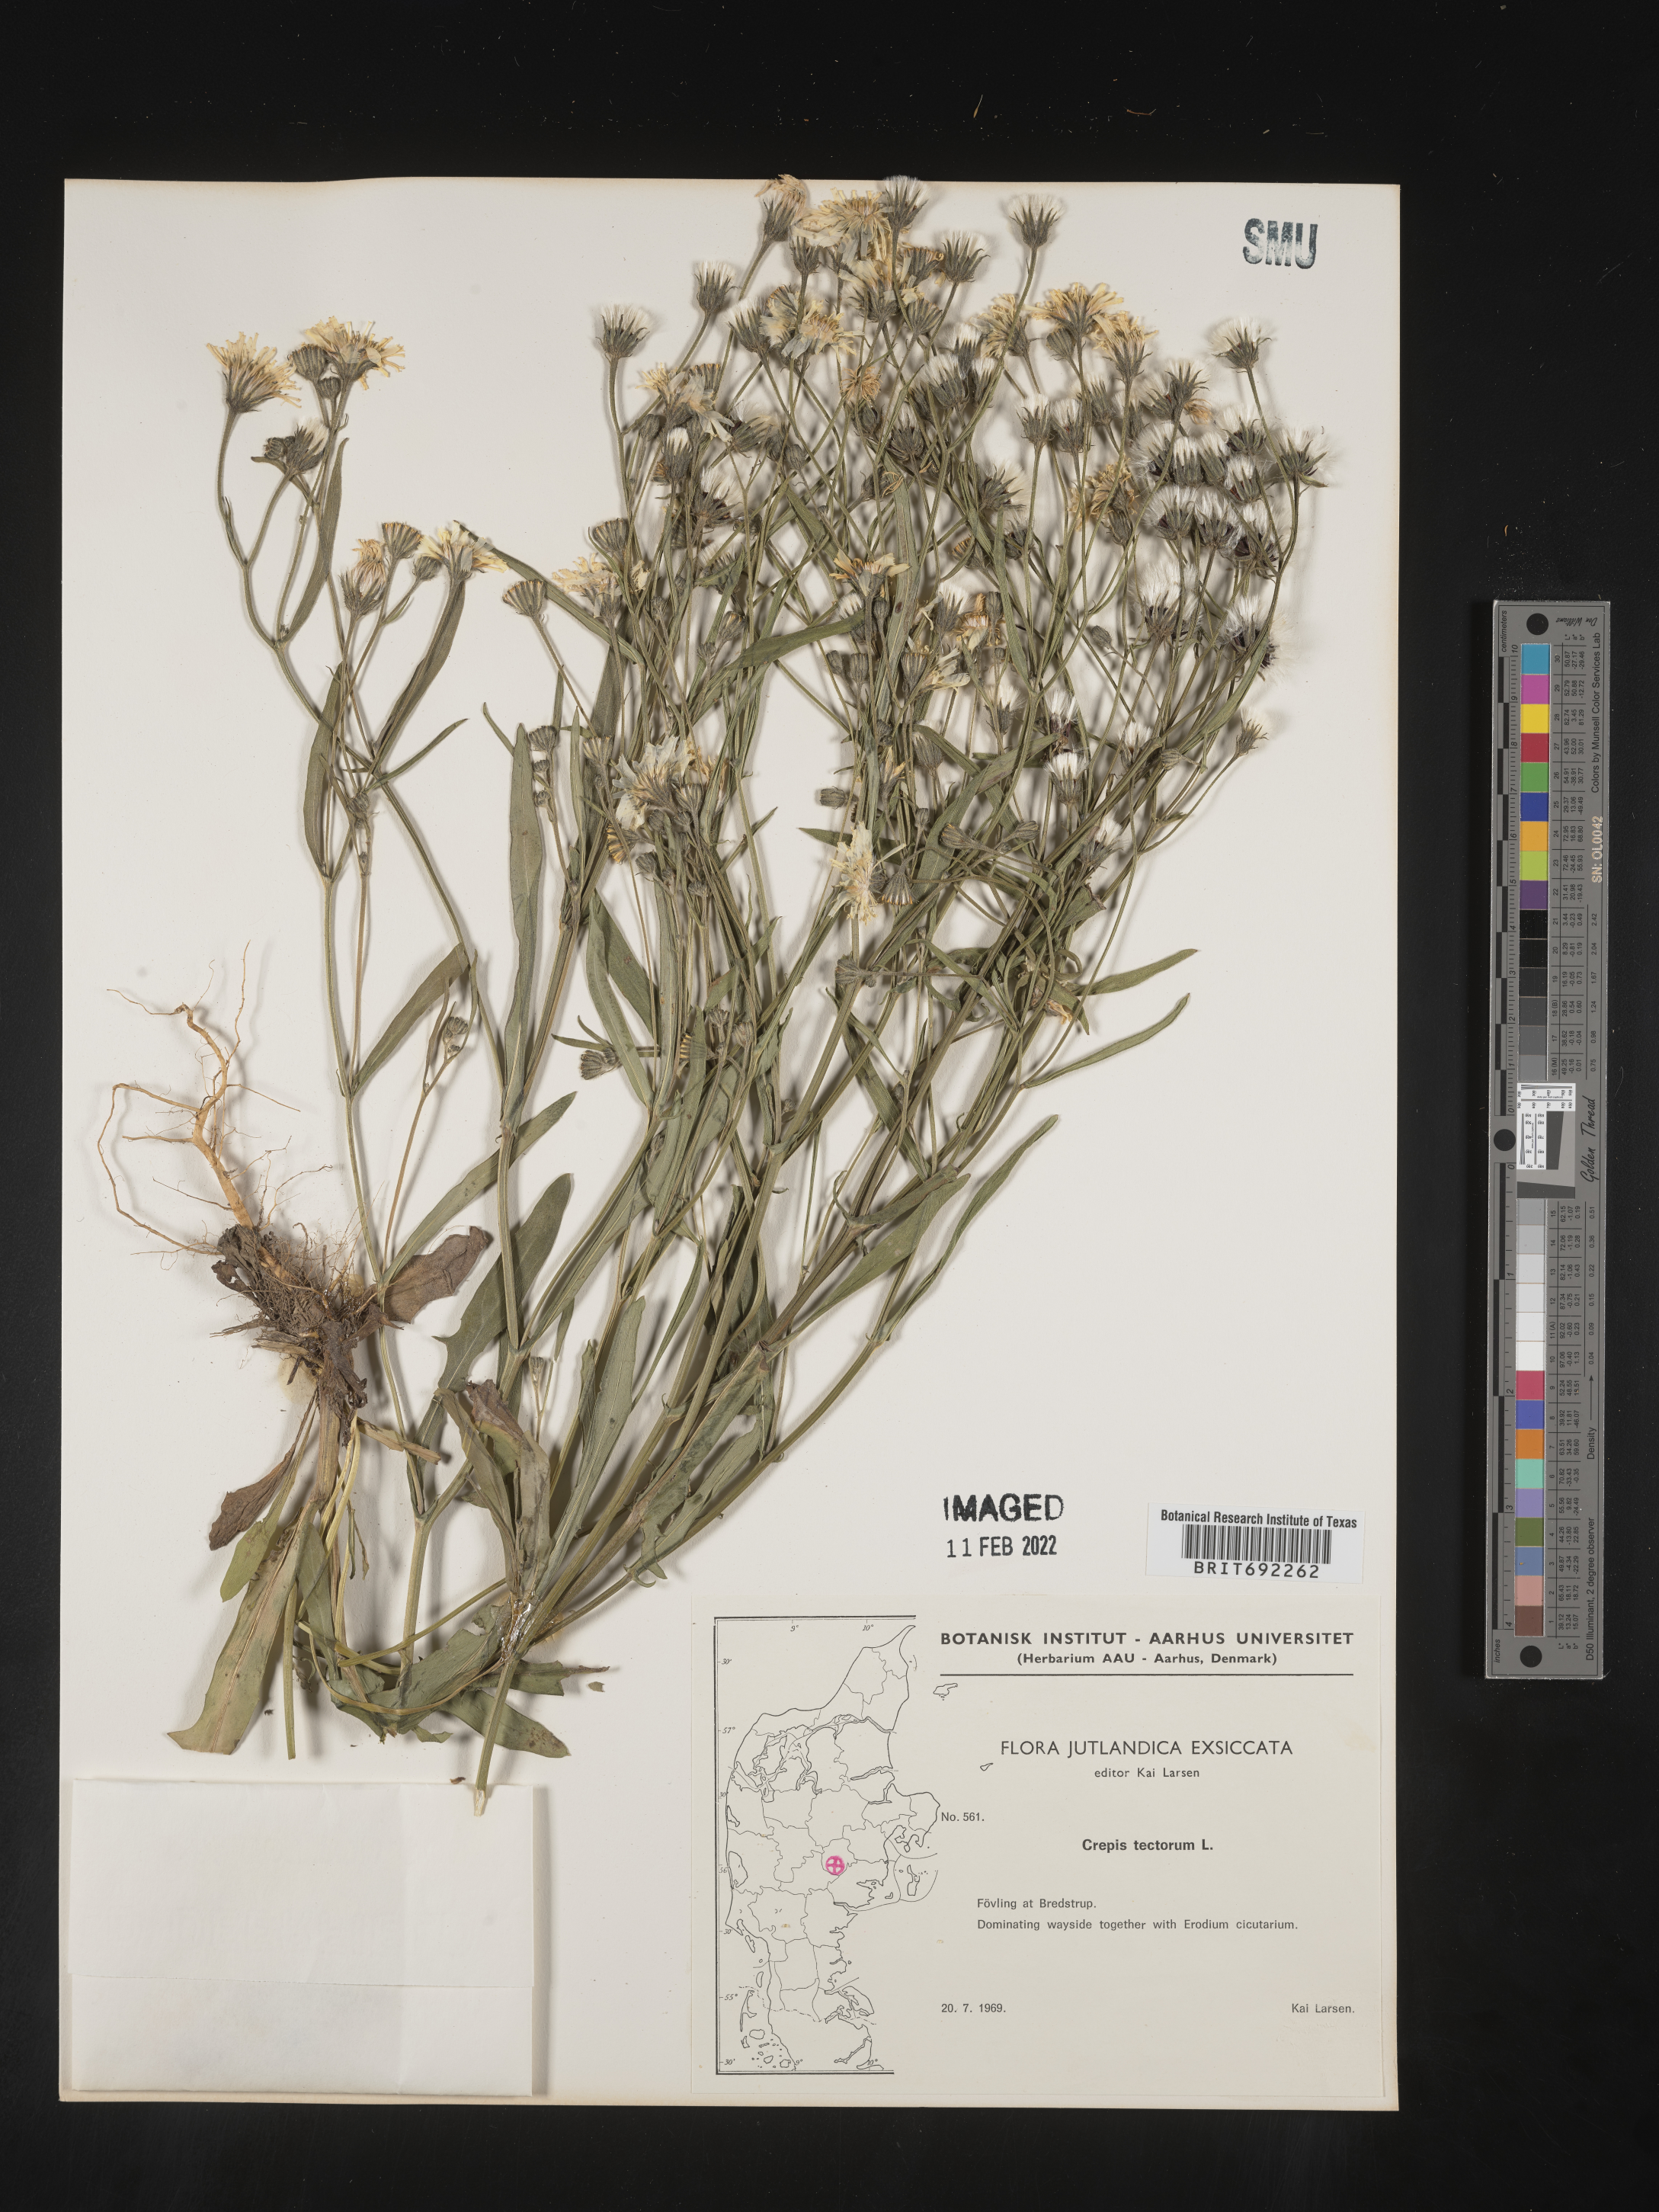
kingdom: Plantae
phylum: Tracheophyta
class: Magnoliopsida
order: Asterales
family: Asteraceae
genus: Crepis
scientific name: Crepis
